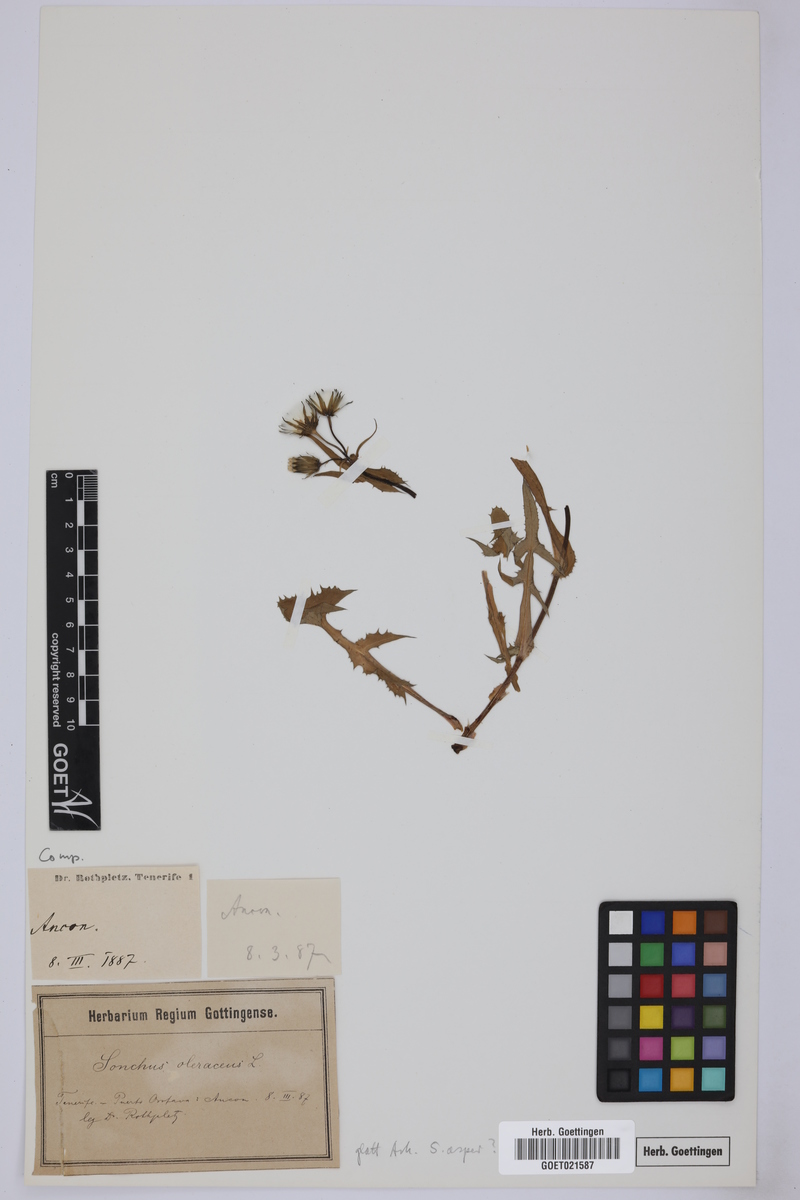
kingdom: Plantae
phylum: Tracheophyta
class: Magnoliopsida
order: Asterales
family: Asteraceae
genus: Sonchus
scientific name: Sonchus asper
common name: Prickly sow-thistle
